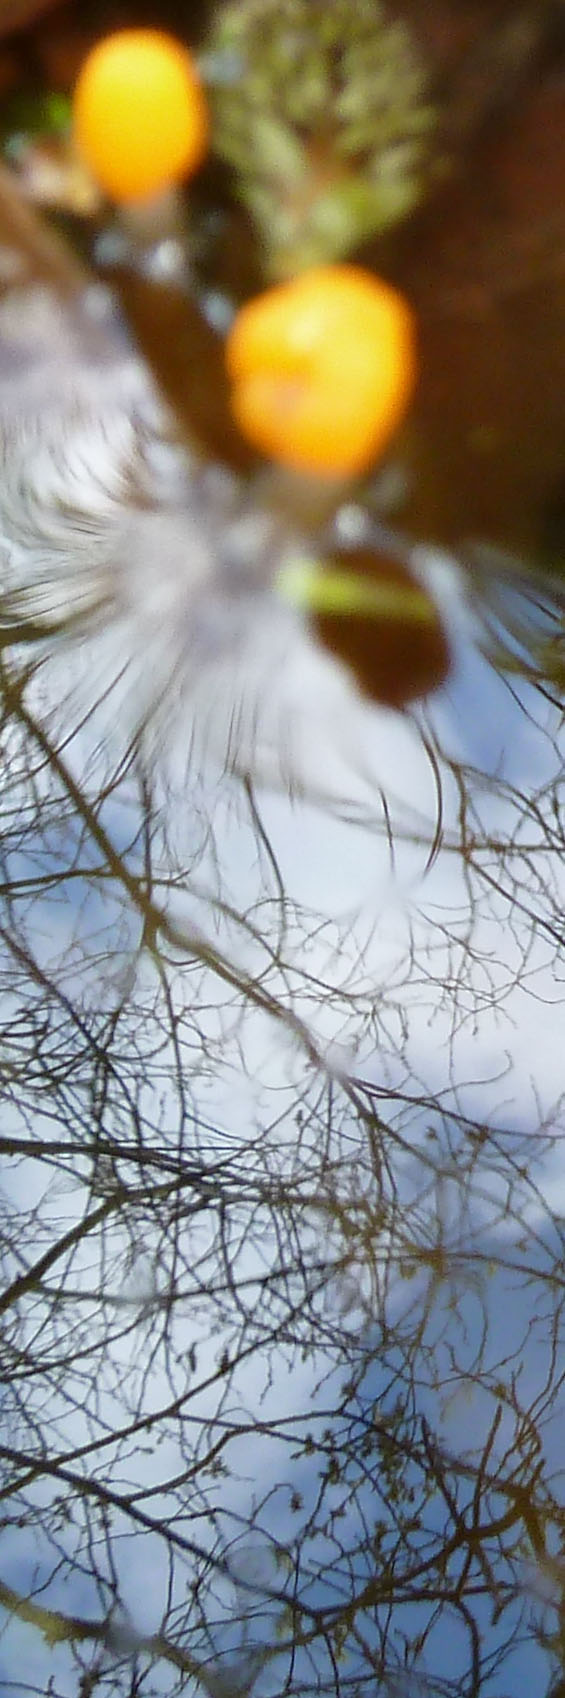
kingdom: Fungi
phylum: Ascomycota
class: Leotiomycetes
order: Helotiales
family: Cenangiaceae
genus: Mitrula
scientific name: Mitrula paludosa
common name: gul nøkketunge
